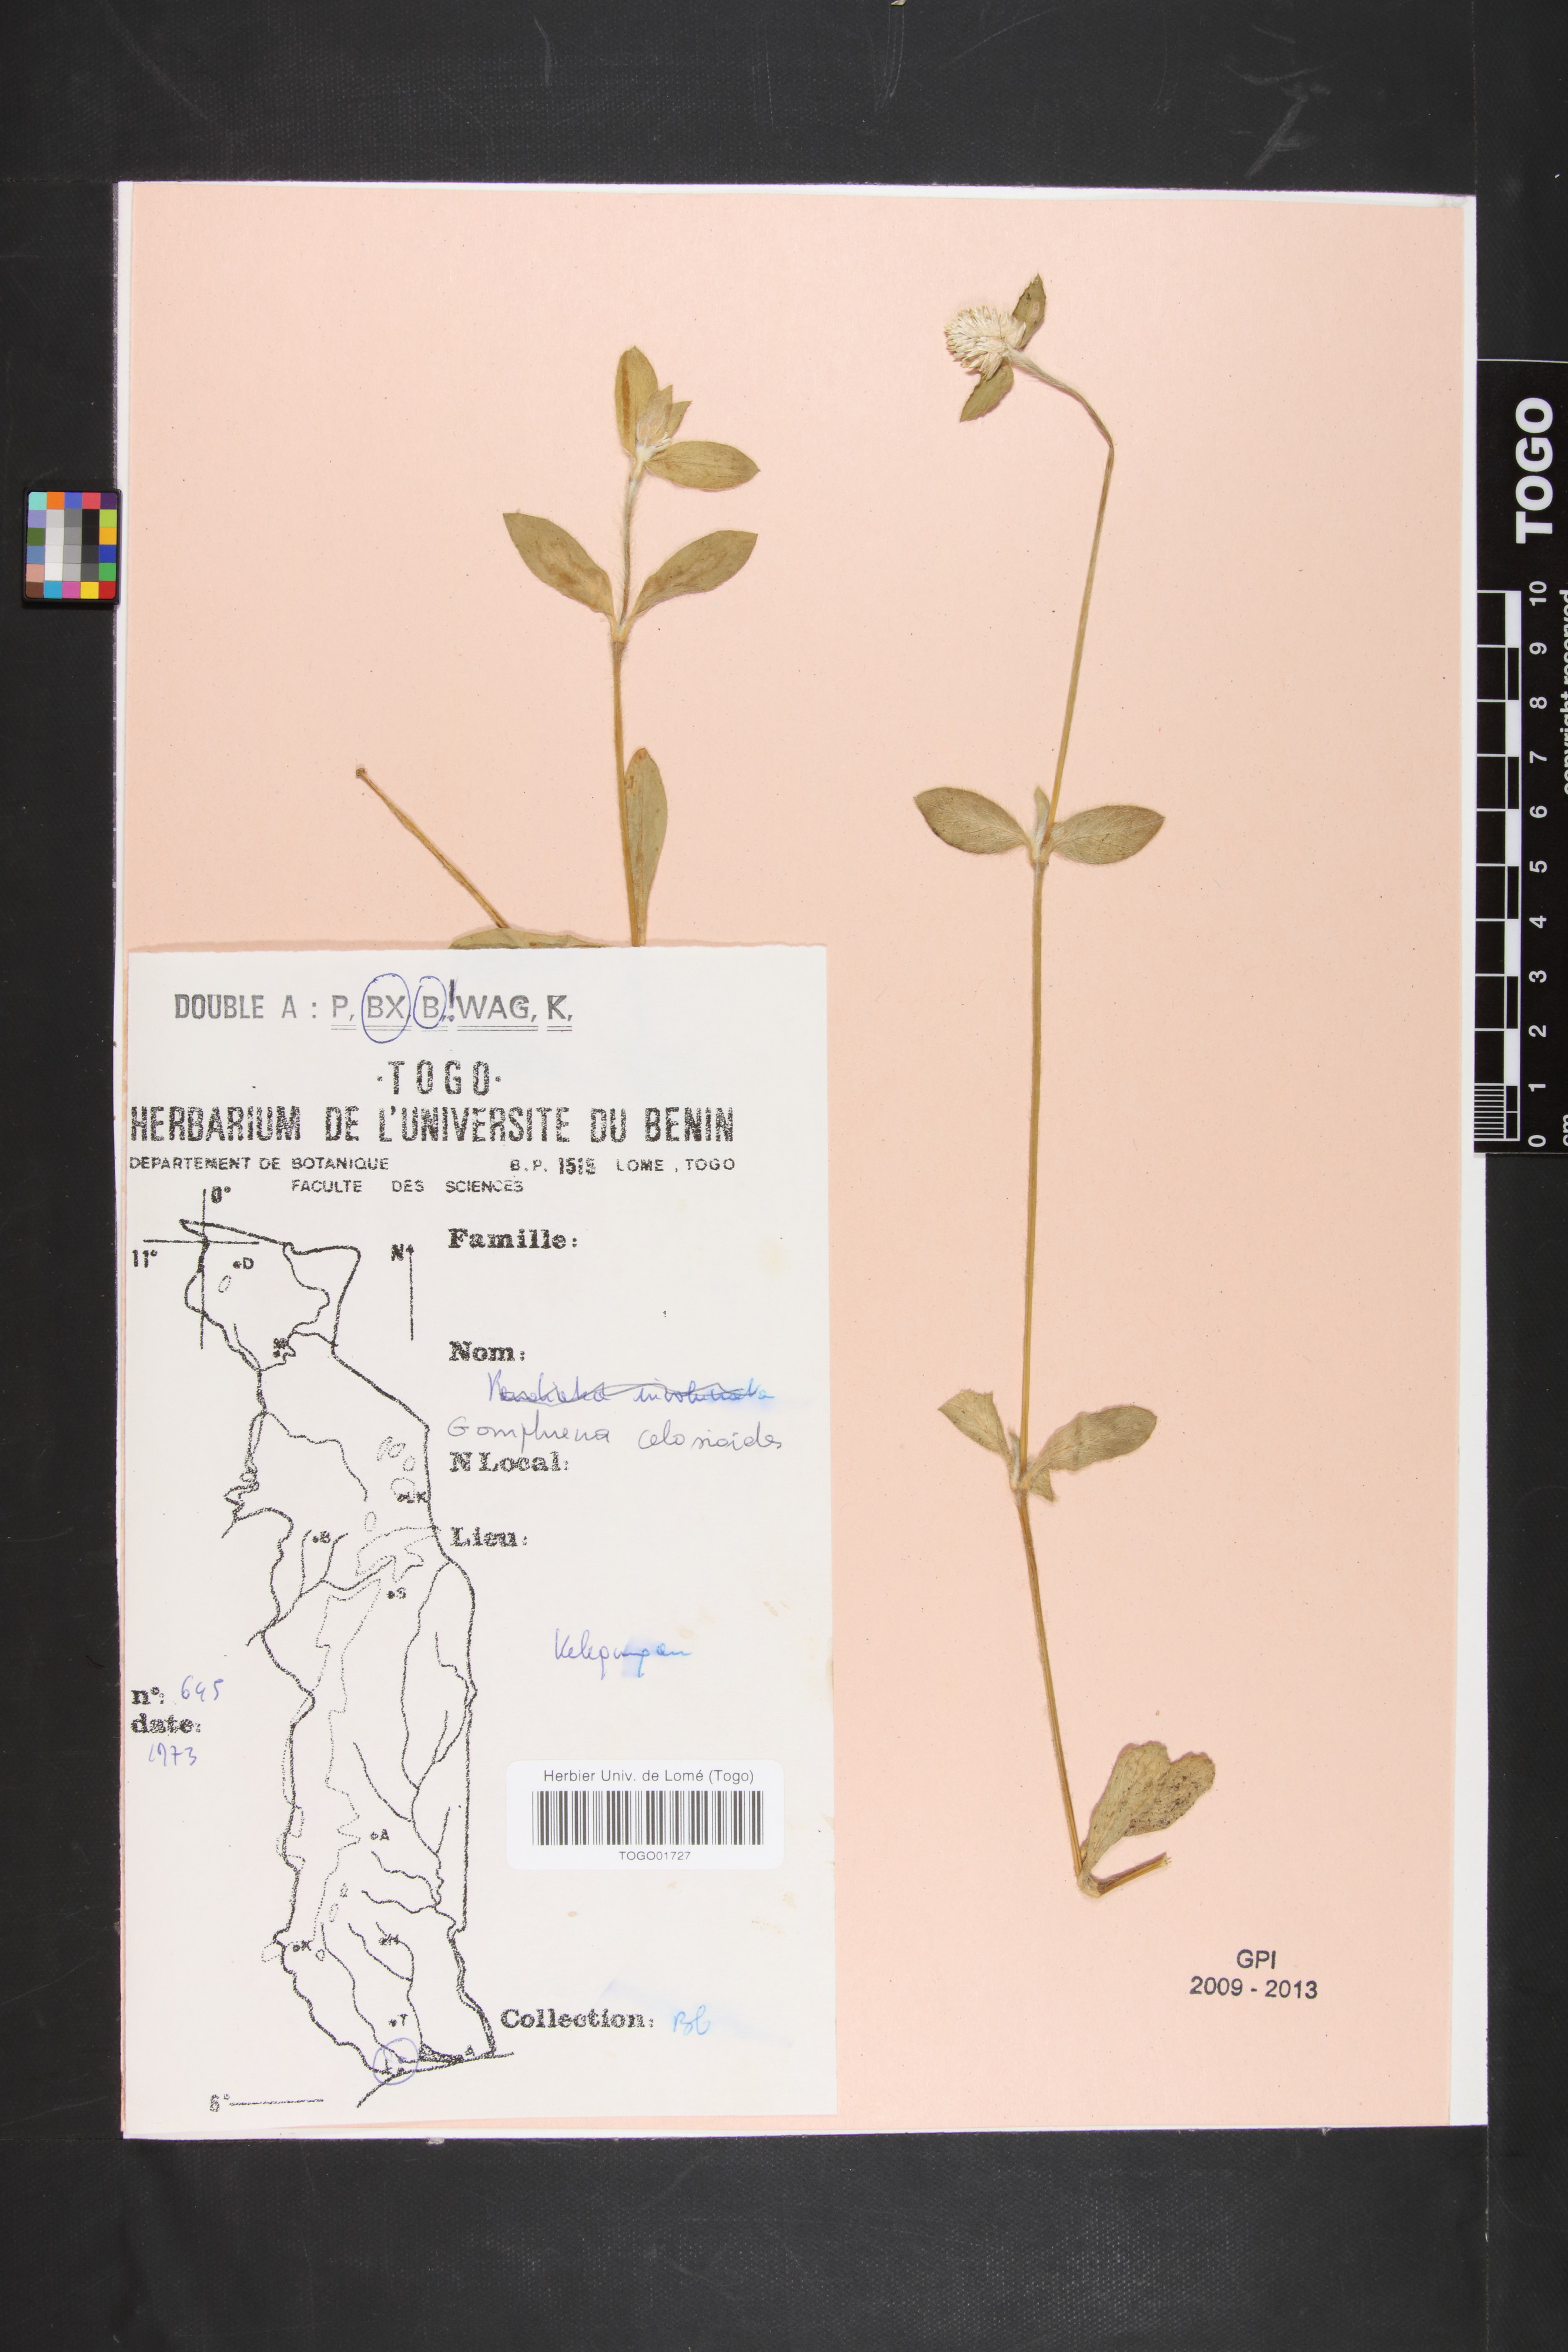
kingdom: Plantae
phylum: Tracheophyta
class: Magnoliopsida
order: Caryophyllales
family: Amaranthaceae
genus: Gomphrena
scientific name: Gomphrena celosioides
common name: Gomphrena-weed
